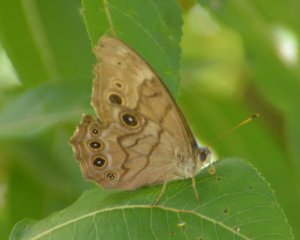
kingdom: Animalia
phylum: Arthropoda
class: Insecta
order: Lepidoptera
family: Nymphalidae
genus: Lethe
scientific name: Lethe anthedon
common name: Northern Pearly-Eye
